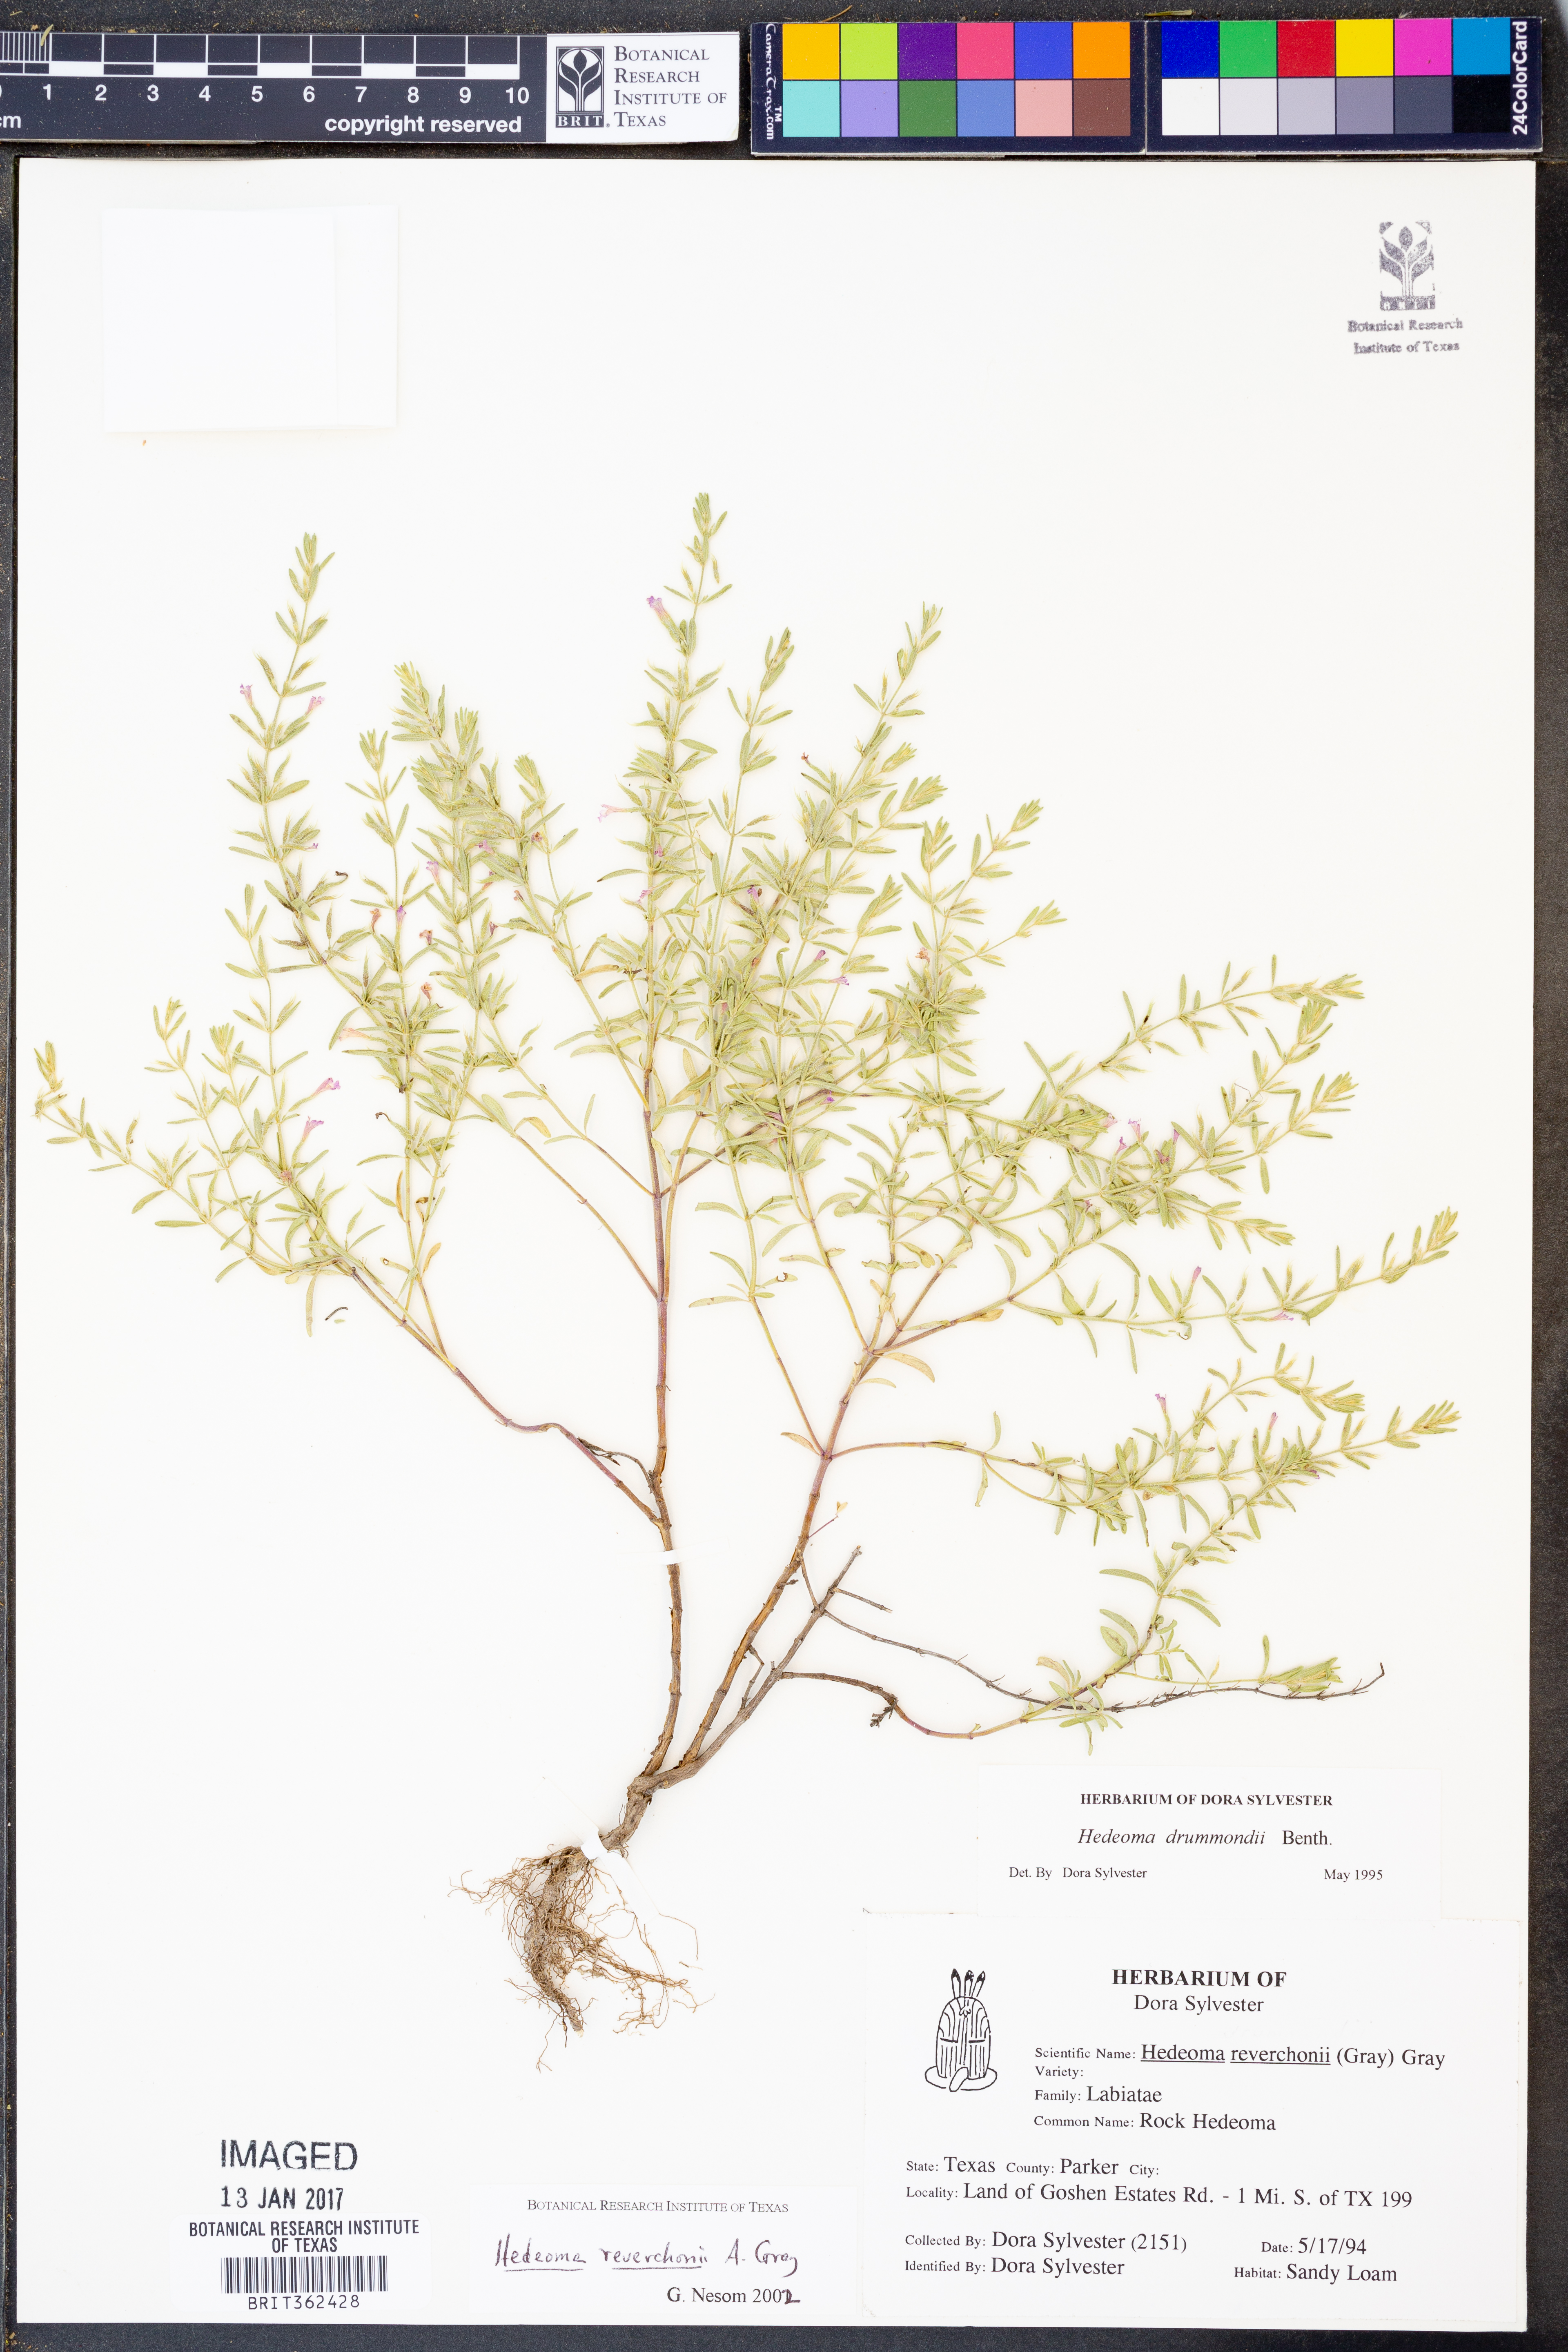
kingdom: Plantae
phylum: Tracheophyta
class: Magnoliopsida
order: Lamiales
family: Lamiaceae
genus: Hedeoma
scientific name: Hedeoma reverchonii
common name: Reverchon's false penny-royal
